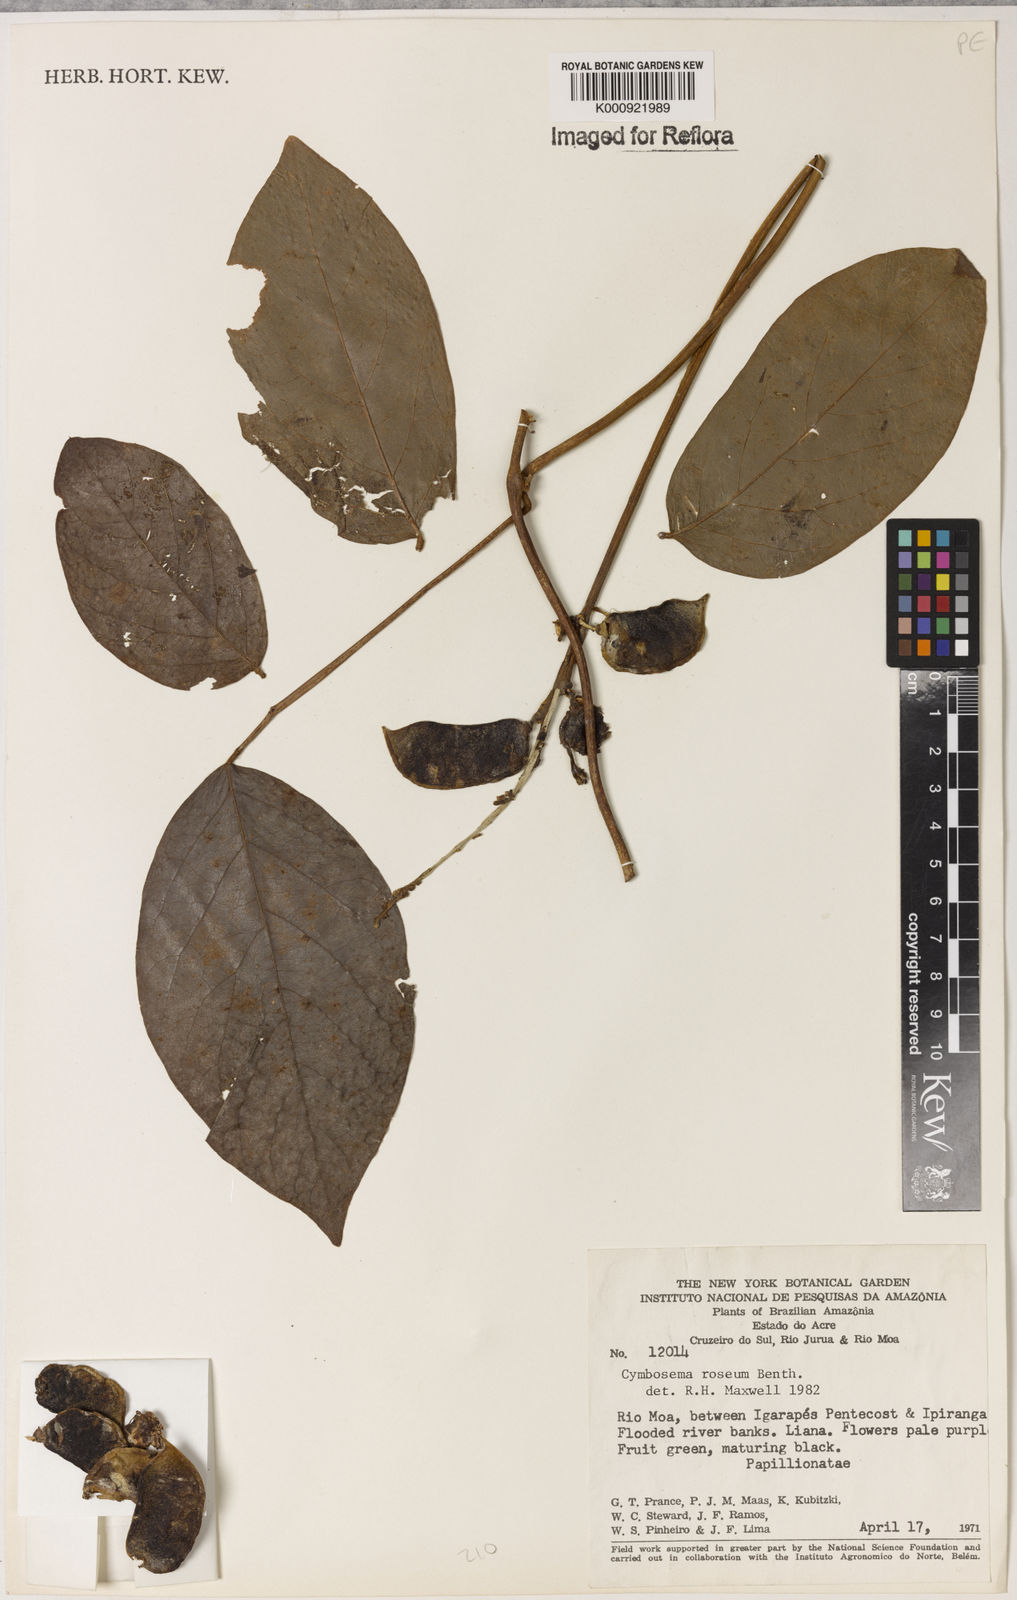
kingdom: Plantae
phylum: Tracheophyta
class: Magnoliopsida
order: Fabales
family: Fabaceae
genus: Cymbosema
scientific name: Cymbosema roseum
